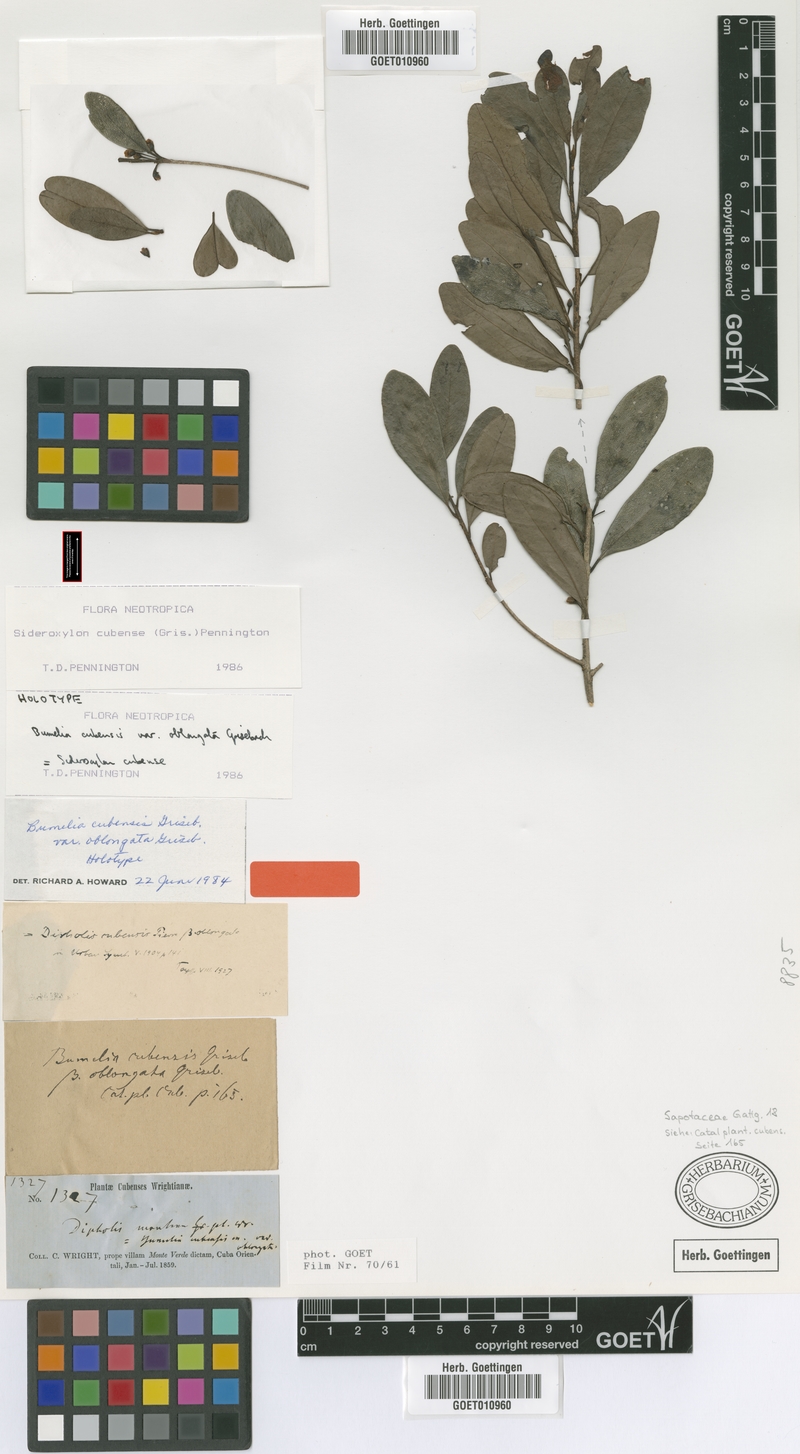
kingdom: Plantae
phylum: Tracheophyta
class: Magnoliopsida
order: Ericales
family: Sapotaceae
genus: Sideroxylon
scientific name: Sideroxylon cubense
